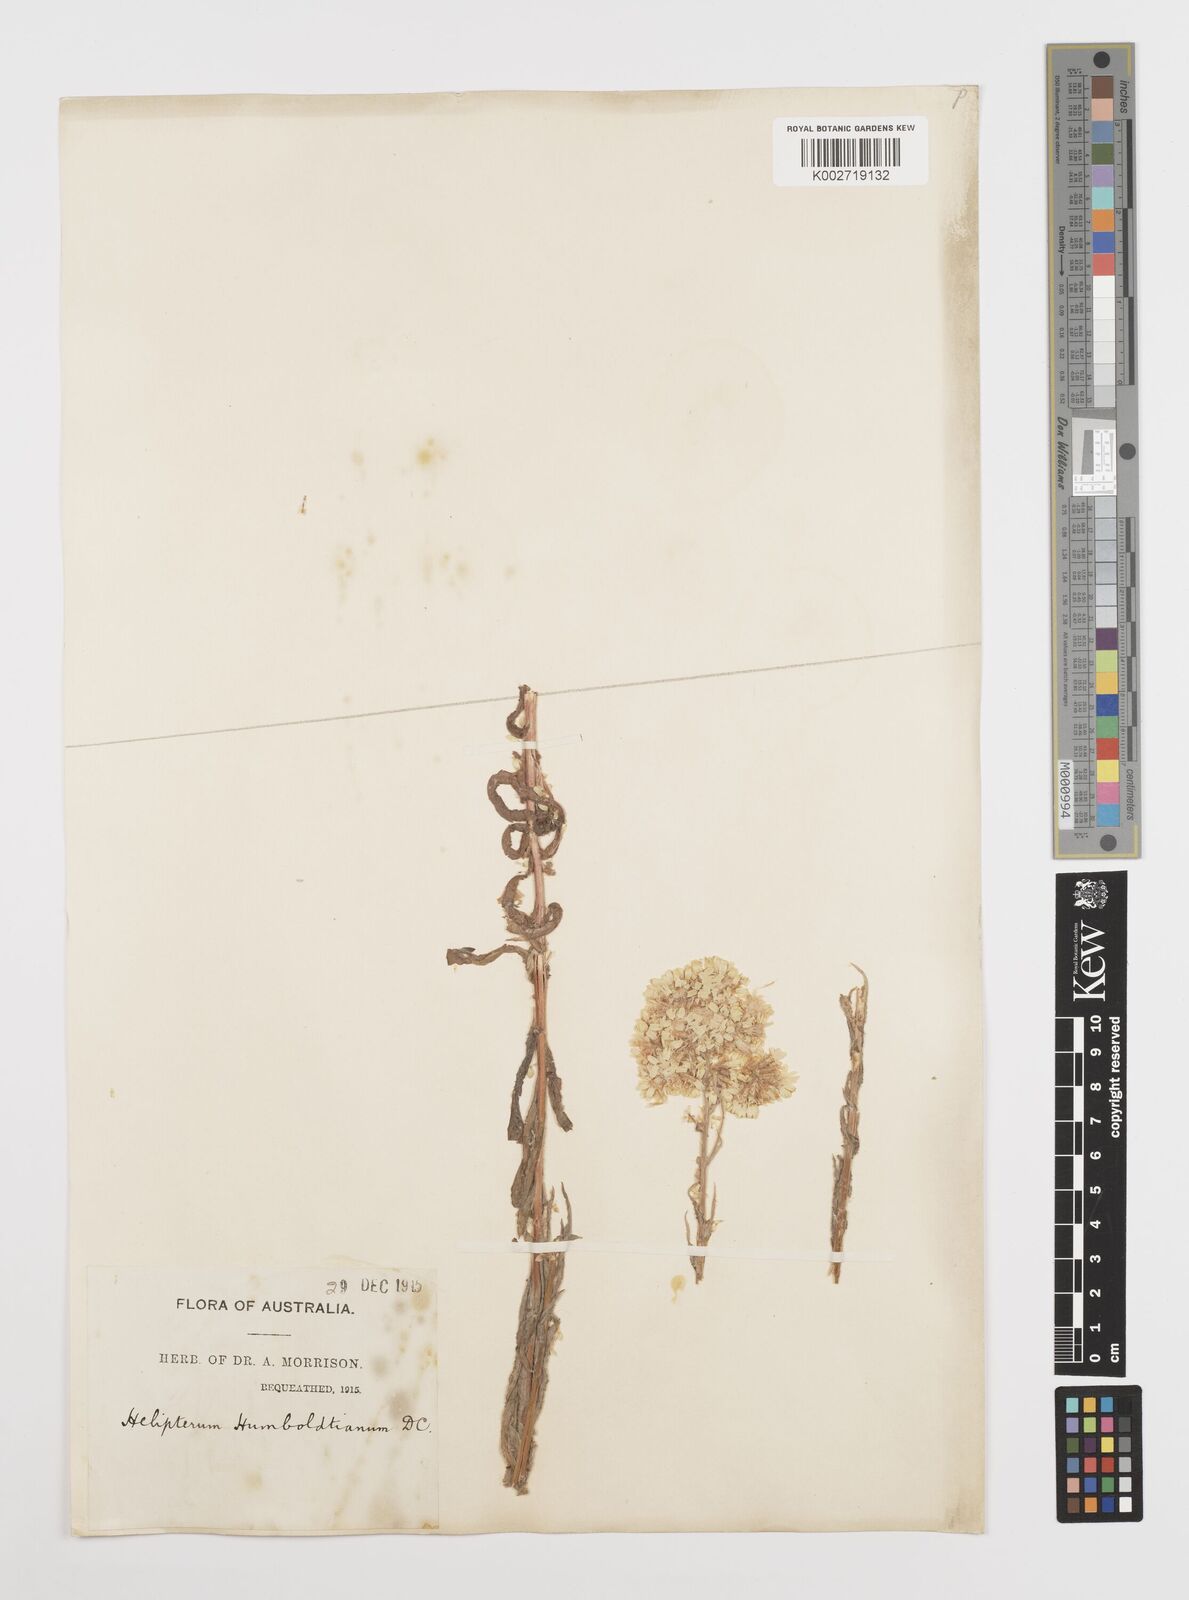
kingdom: Plantae
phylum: Tracheophyta
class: Magnoliopsida
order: Asterales
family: Asteraceae
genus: Rhodanthe
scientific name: Rhodanthe humboldtiana
